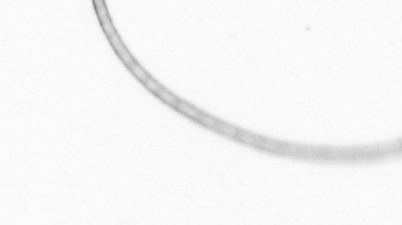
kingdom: Chromista
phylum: Ochrophyta
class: Bacillariophyceae
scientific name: Bacillariophyceae
